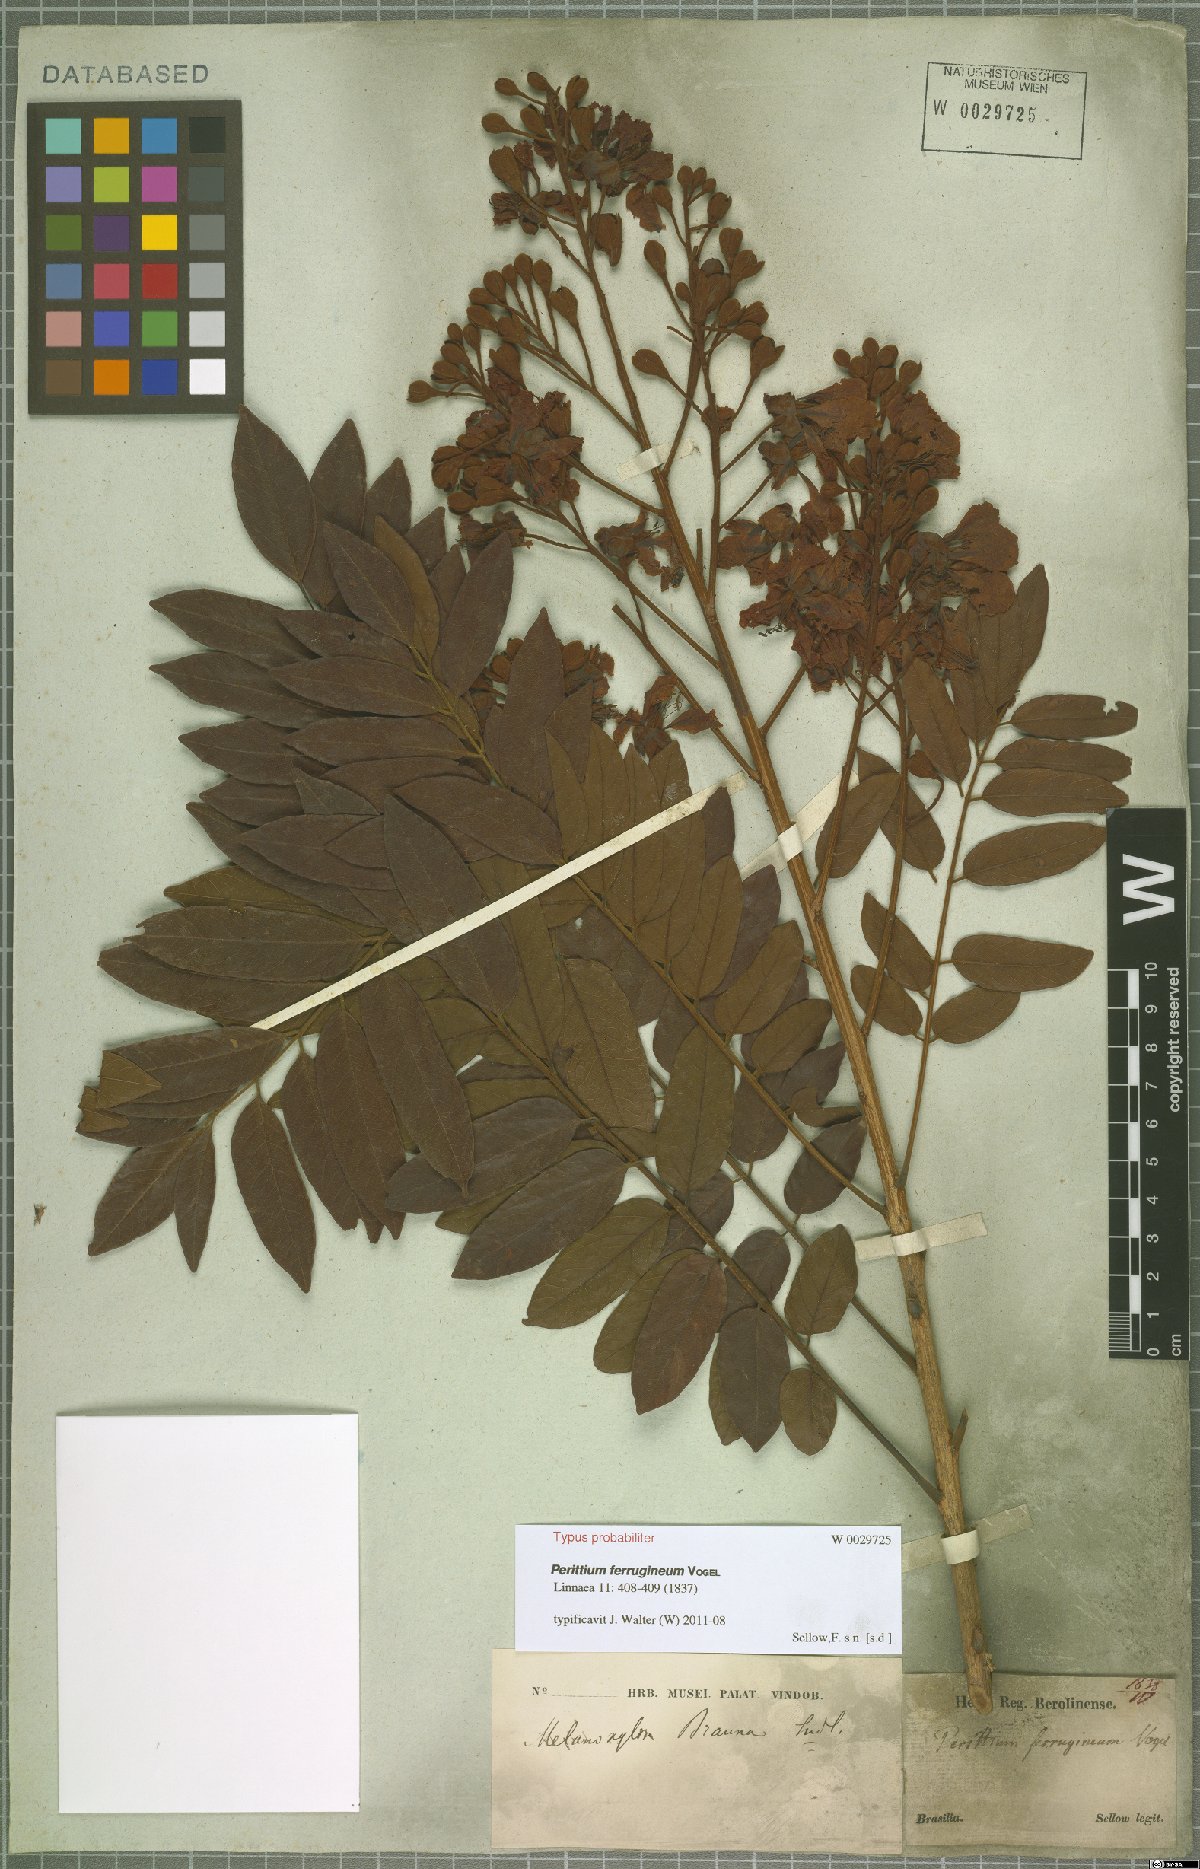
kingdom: Plantae
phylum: Tracheophyta
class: Magnoliopsida
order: Fabales
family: Fabaceae
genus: Melanoxylum
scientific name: Melanoxylum brauna
